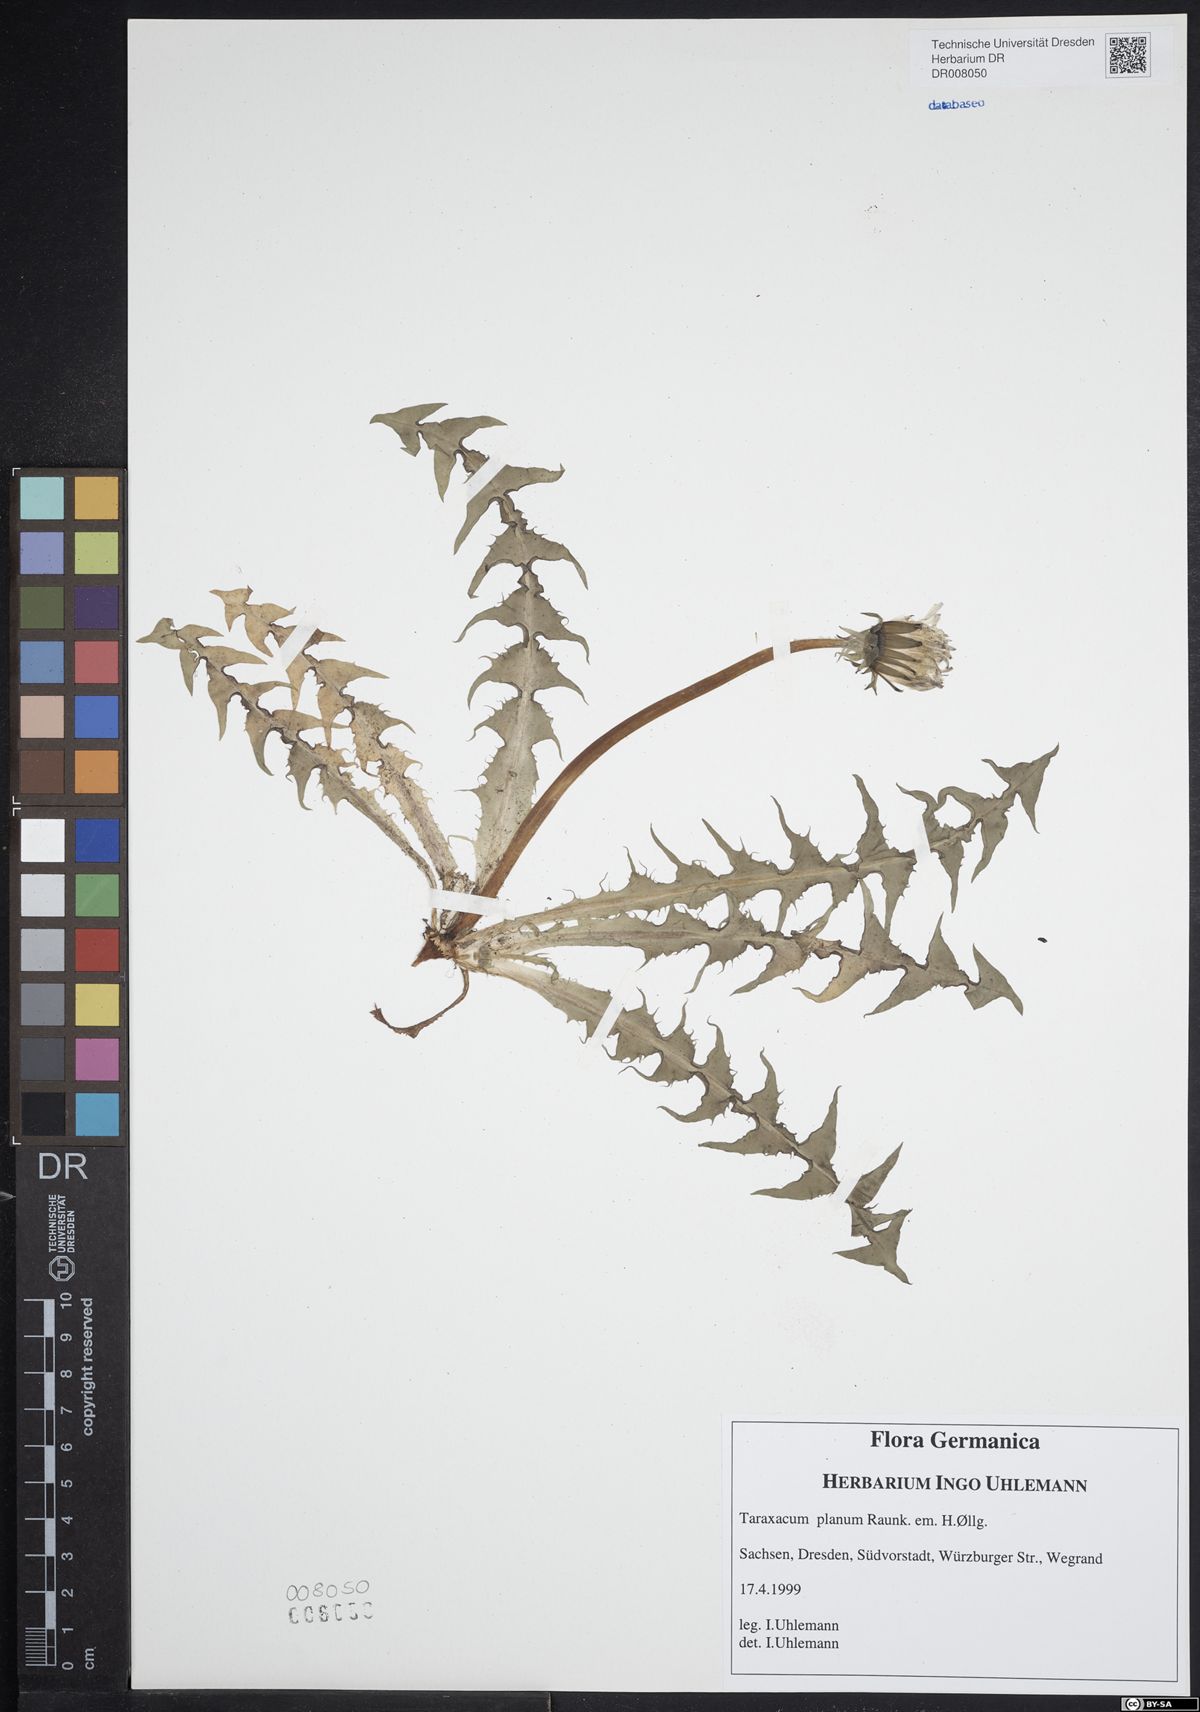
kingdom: Plantae
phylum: Tracheophyta
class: Magnoliopsida
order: Asterales
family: Asteraceae
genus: Taraxacum
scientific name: Taraxacum planum
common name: Diverse-leaved dandelion
